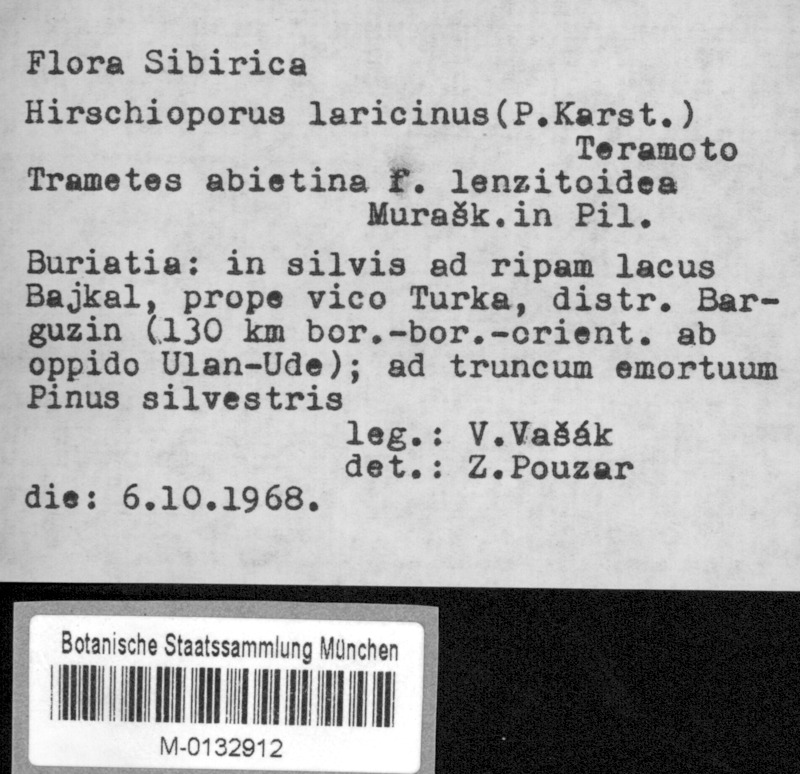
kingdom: Fungi
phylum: Basidiomycota
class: Agaricomycetes
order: Hymenochaetales
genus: Trichaptum
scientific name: Trichaptum laricinum
